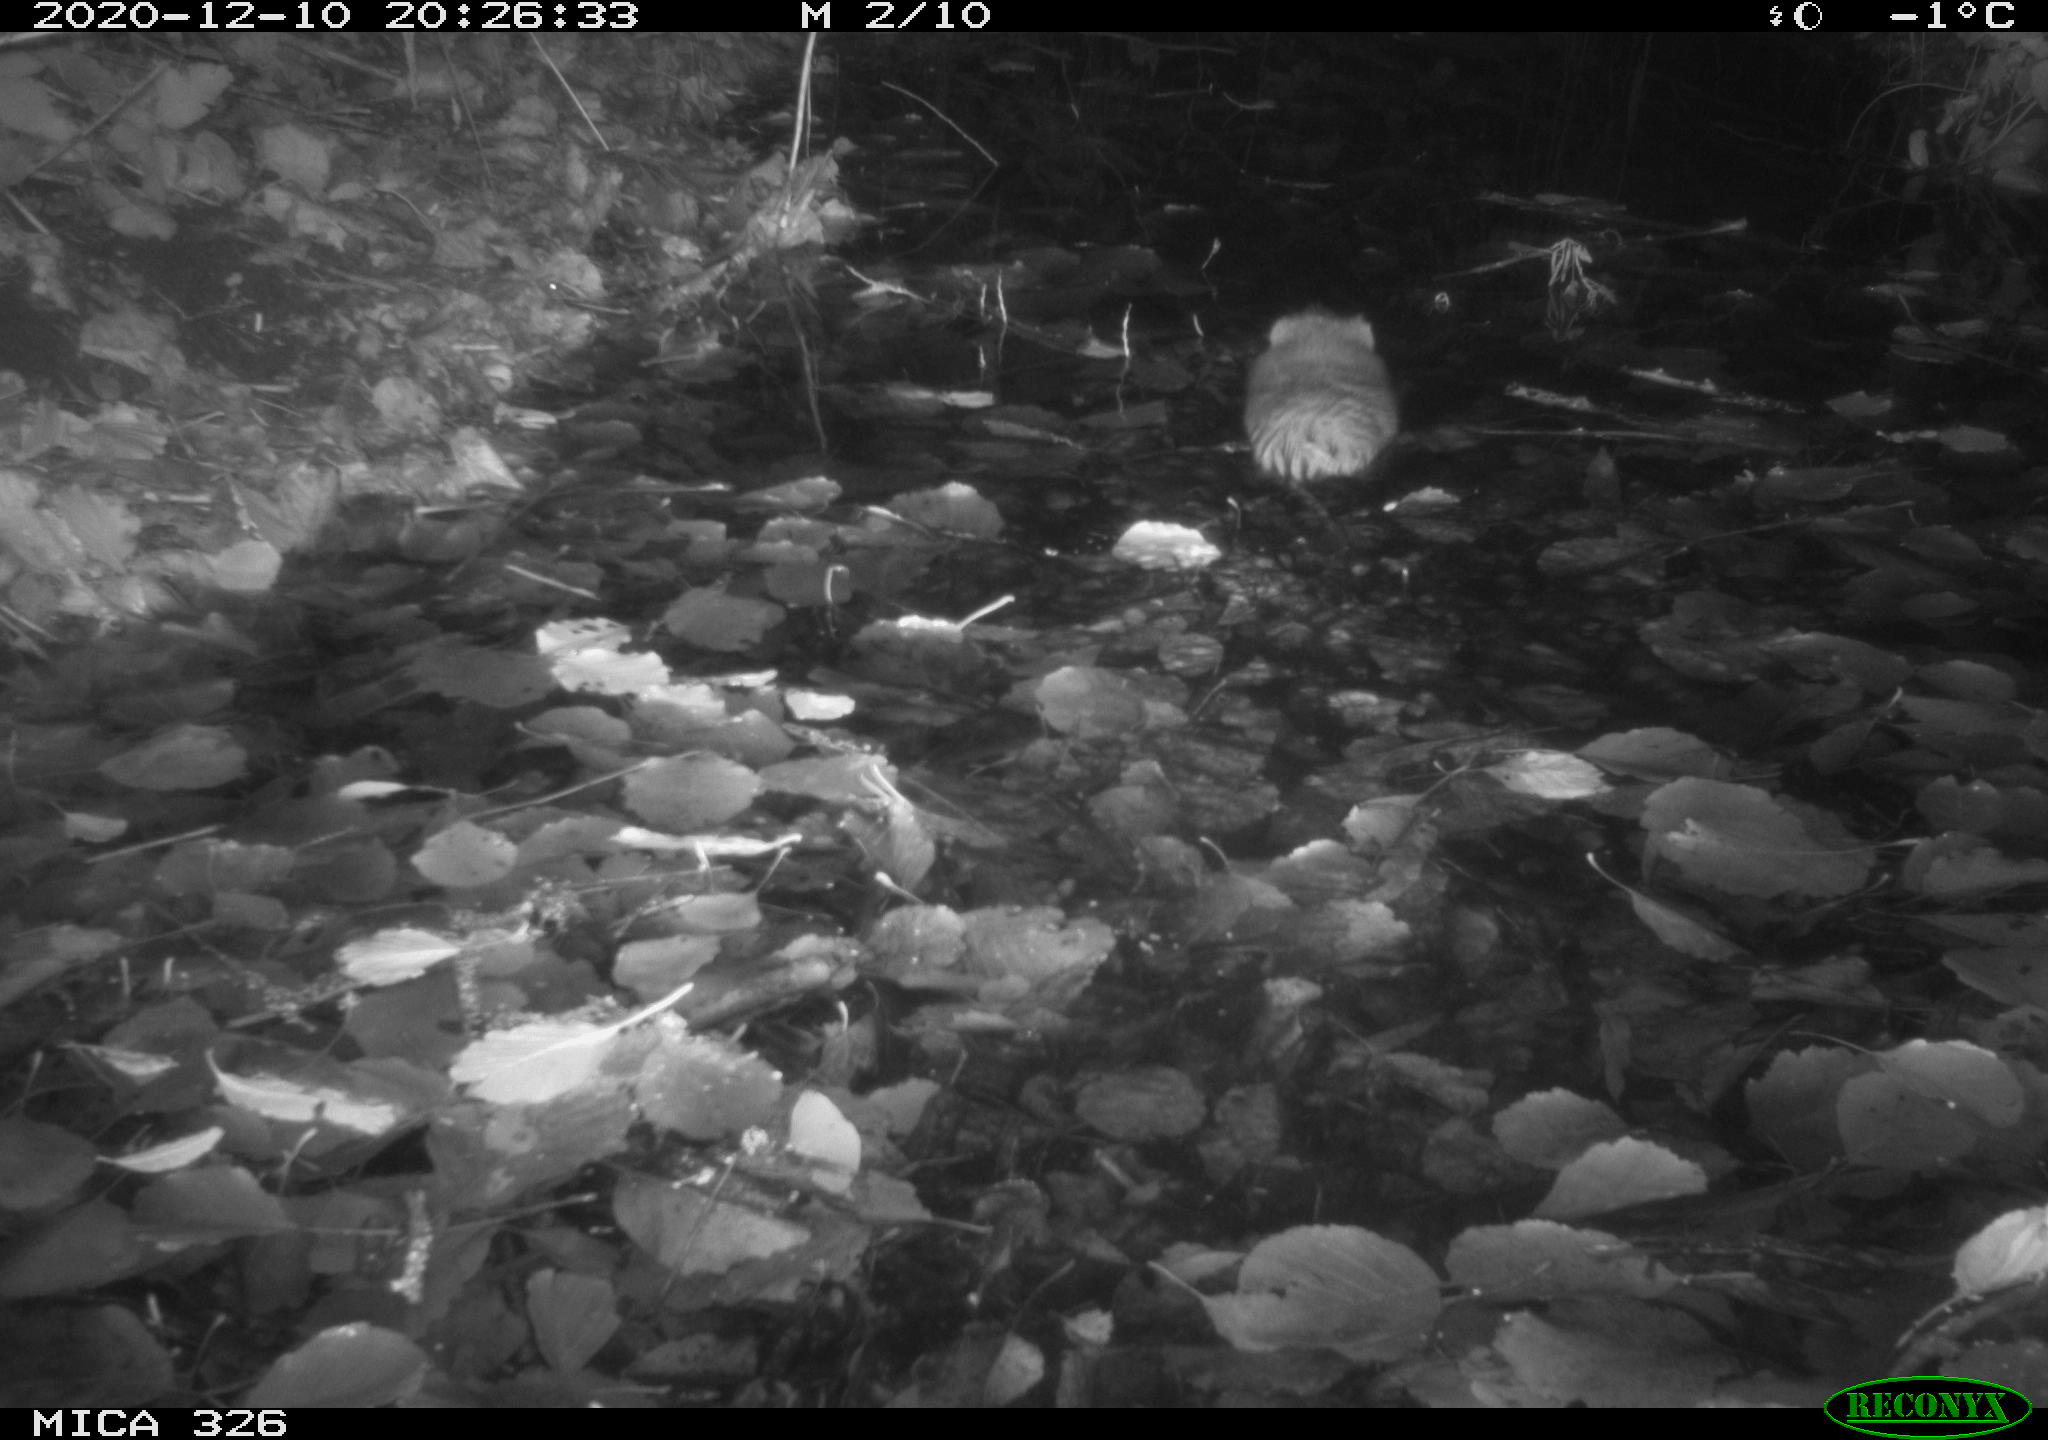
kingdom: Animalia
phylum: Chordata
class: Mammalia
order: Rodentia
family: Cricetidae
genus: Ondatra
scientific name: Ondatra zibethicus
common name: Muskrat
